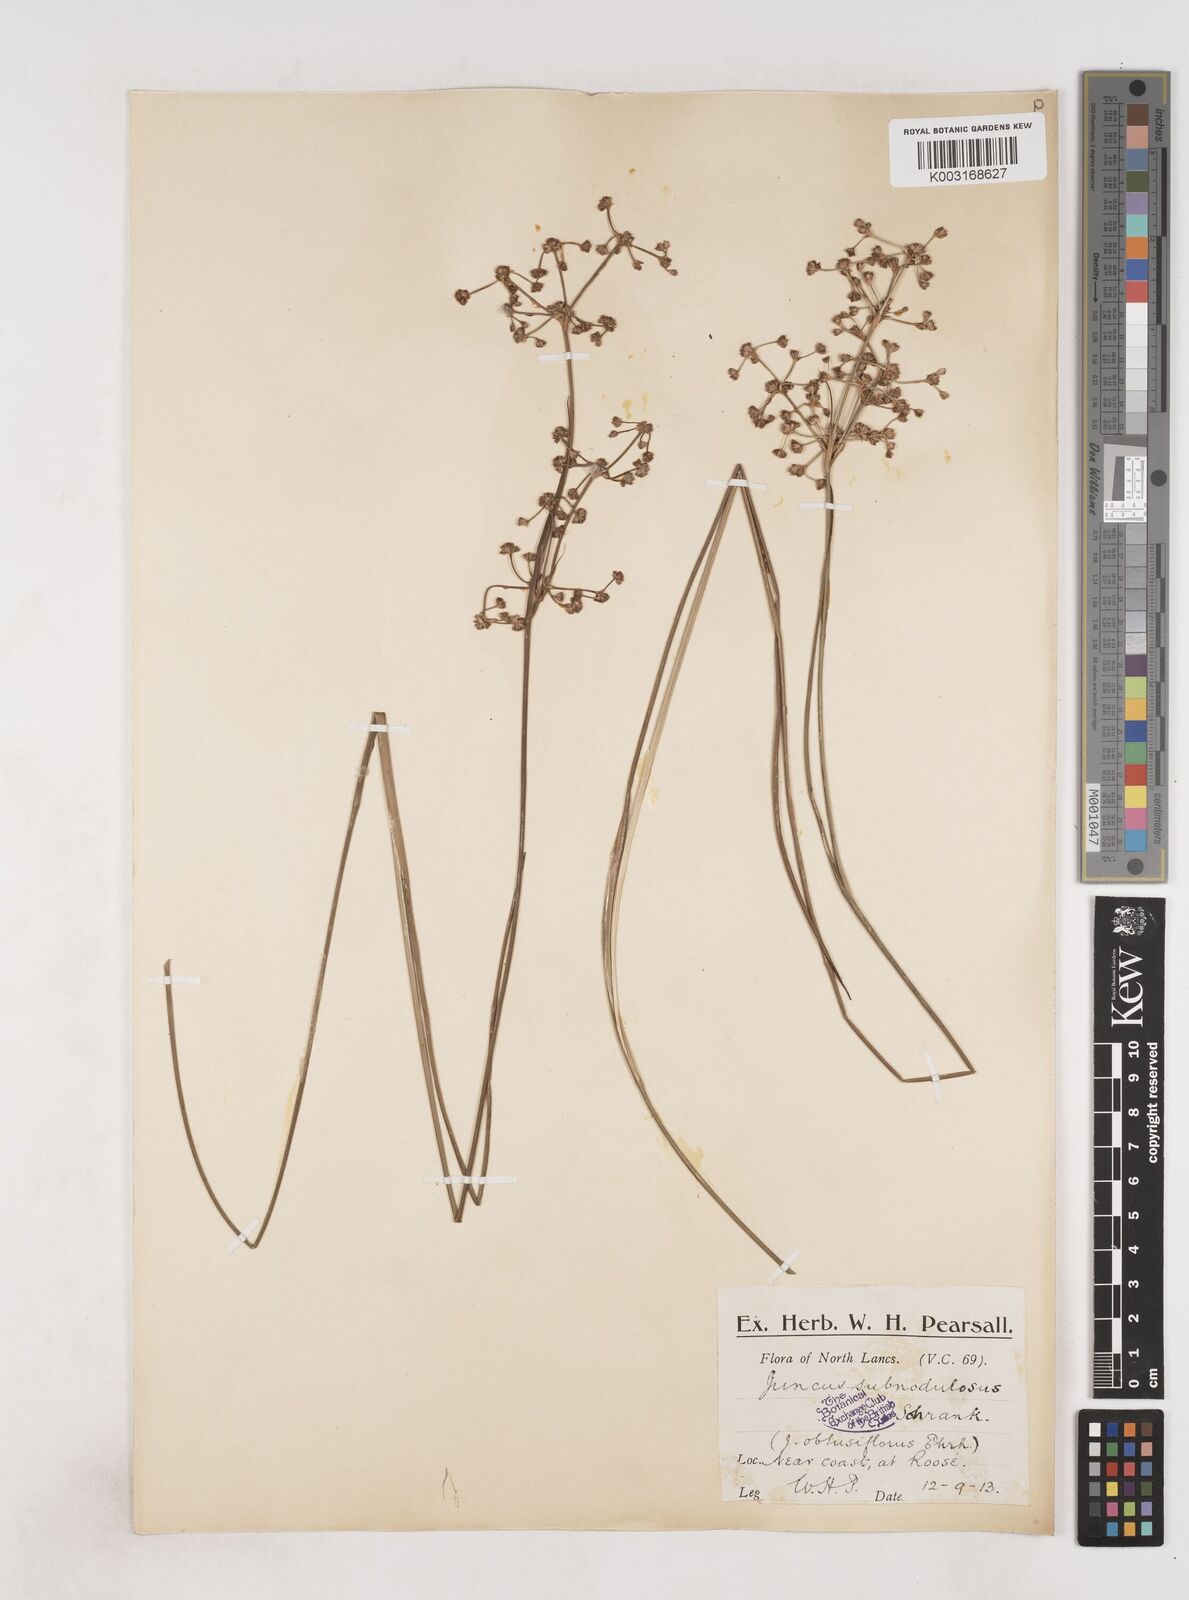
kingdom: Plantae
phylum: Tracheophyta
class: Liliopsida
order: Poales
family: Juncaceae
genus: Juncus
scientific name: Juncus subnodulosus
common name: Blunt-flowered rush
